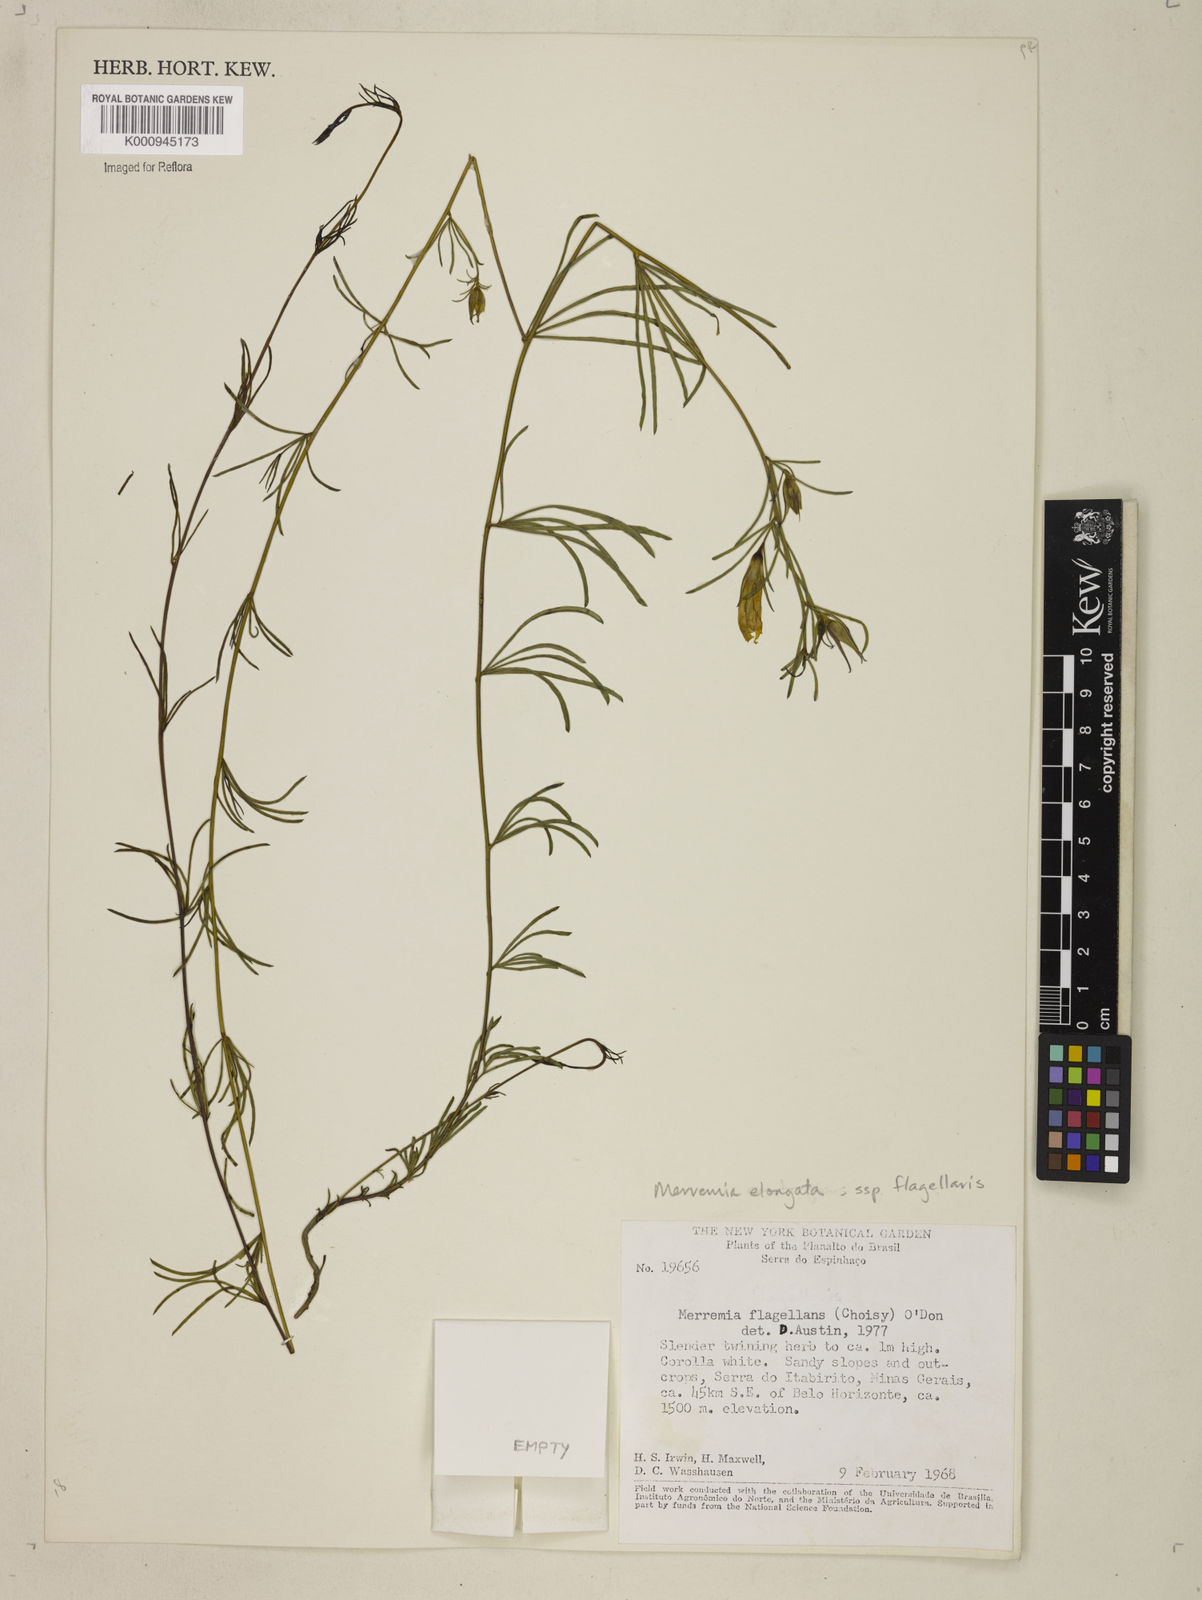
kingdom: Plantae
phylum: Tracheophyta
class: Magnoliopsida
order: Solanales
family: Convolvulaceae
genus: Distimake
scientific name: Distimake flagellaris
